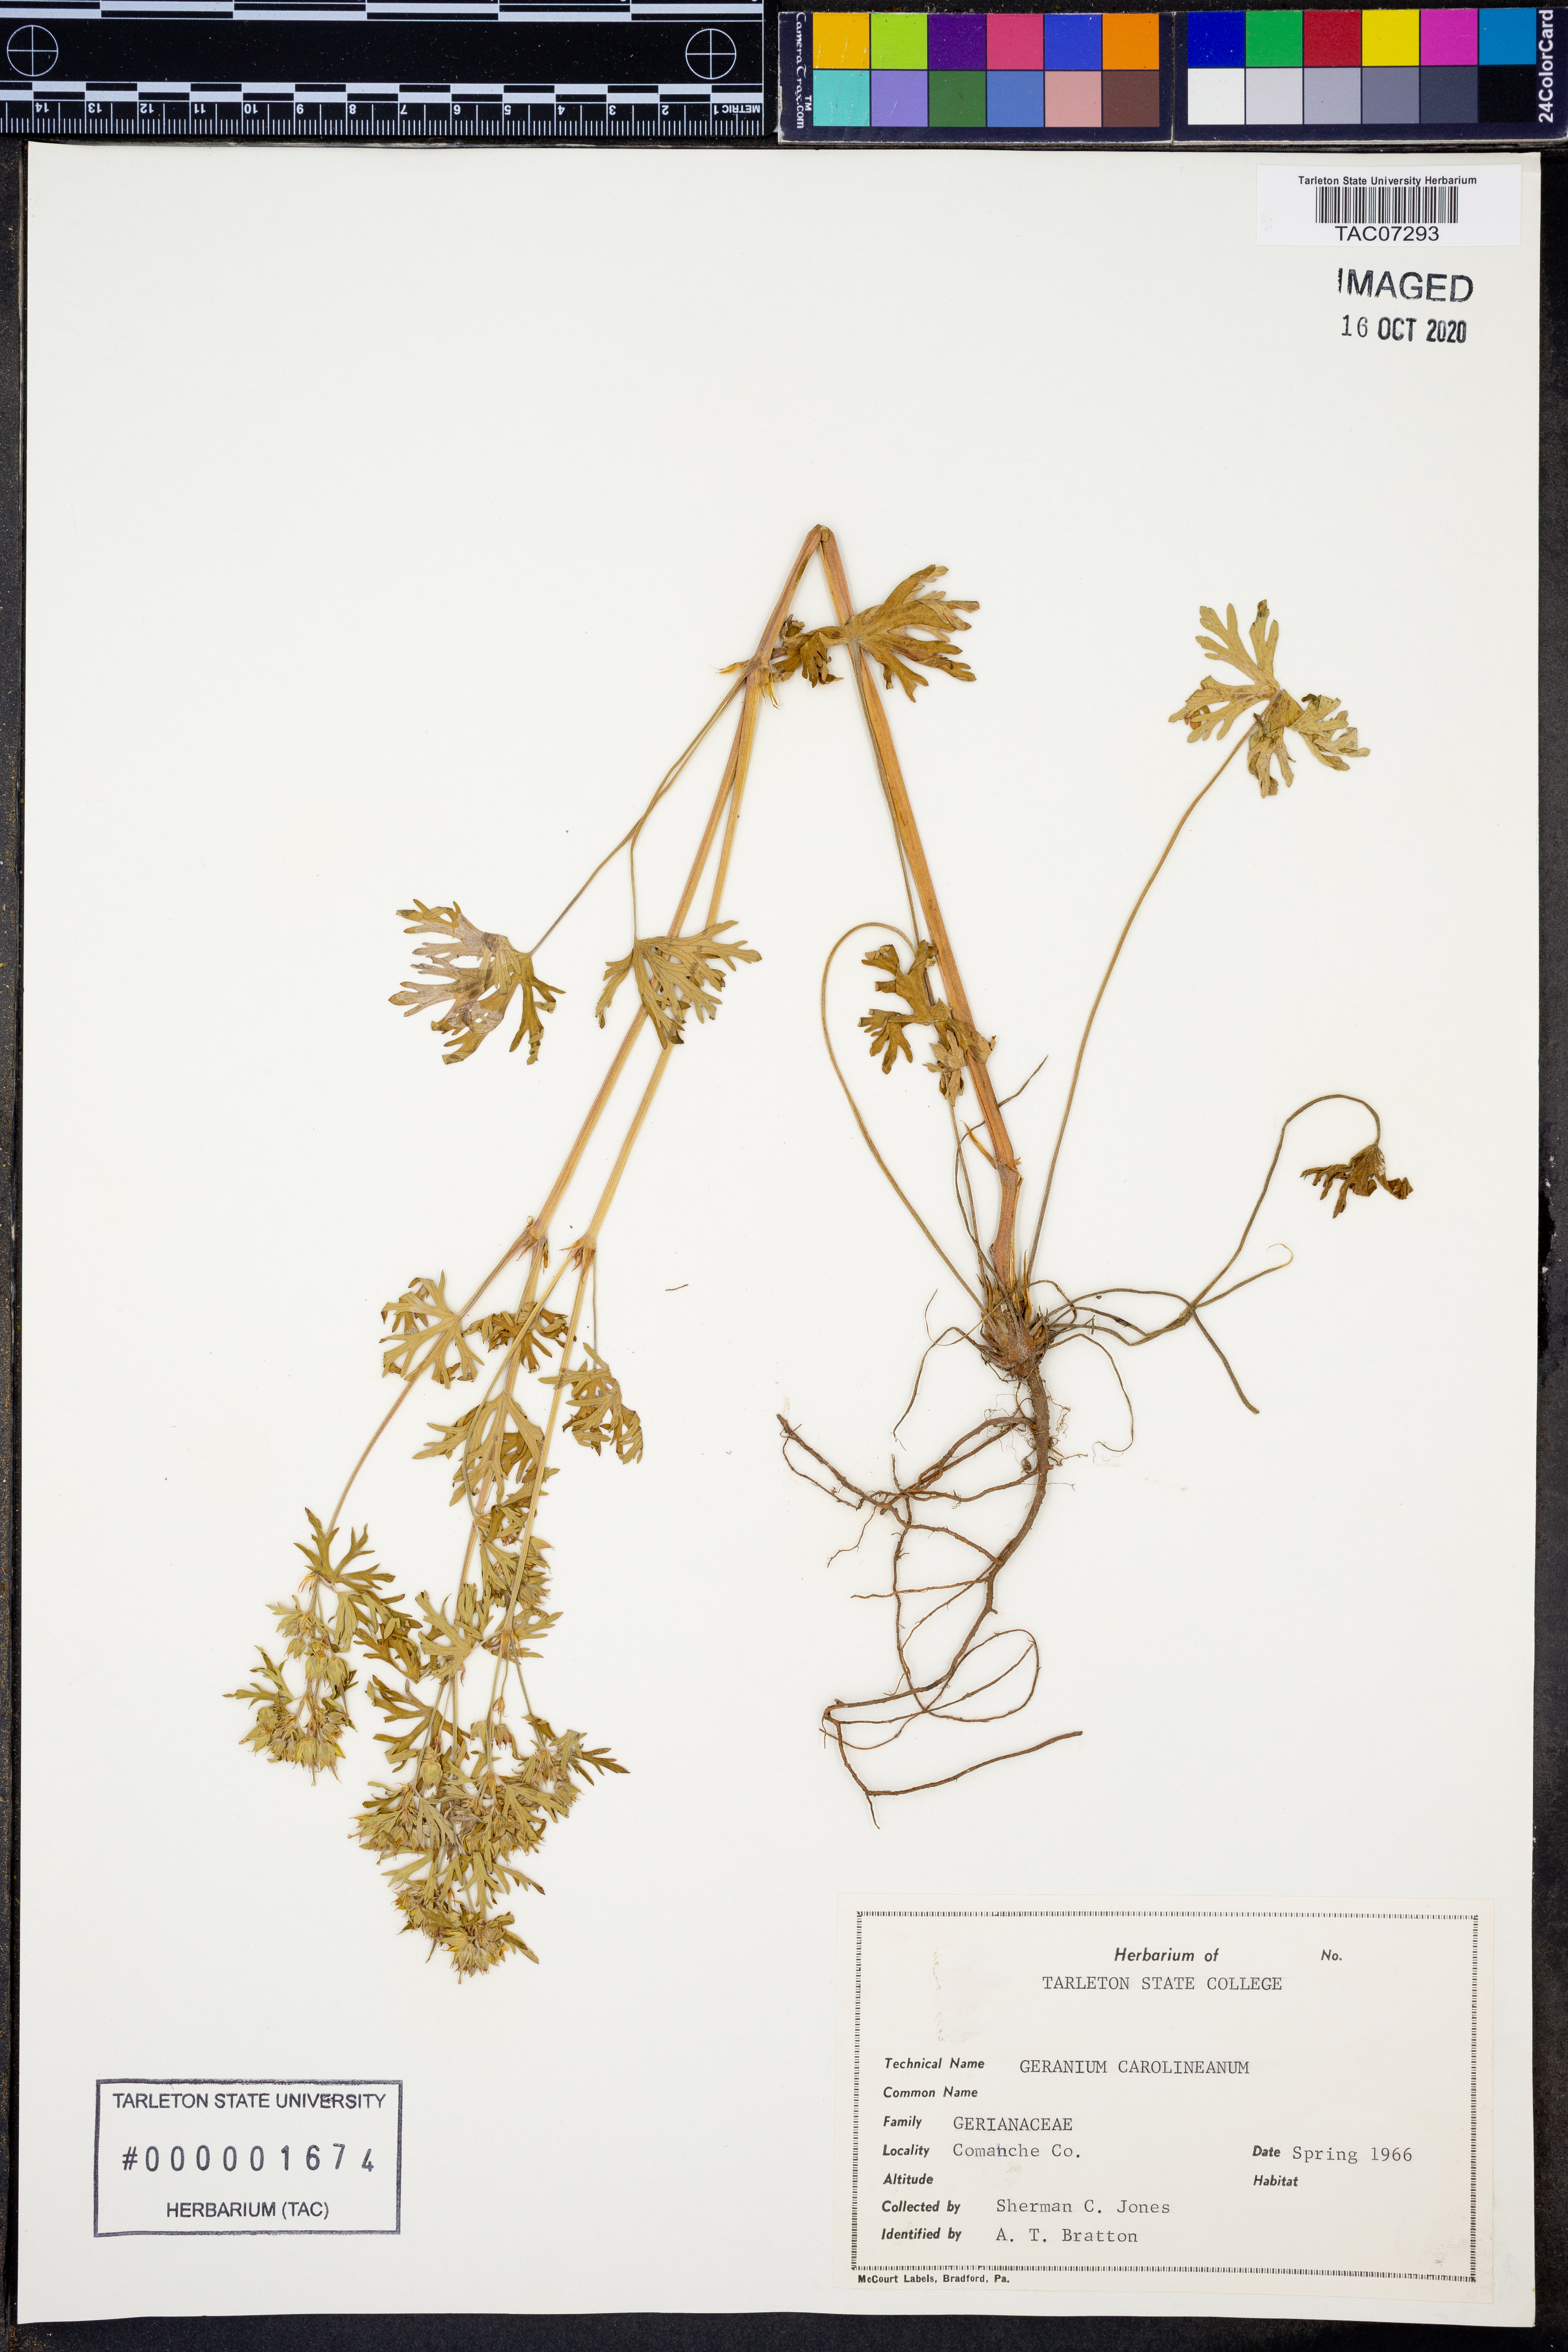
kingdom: Plantae
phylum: Tracheophyta
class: Magnoliopsida
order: Geraniales
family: Geraniaceae
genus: Geranium
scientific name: Geranium carolinianum
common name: Carolina crane's-bill
